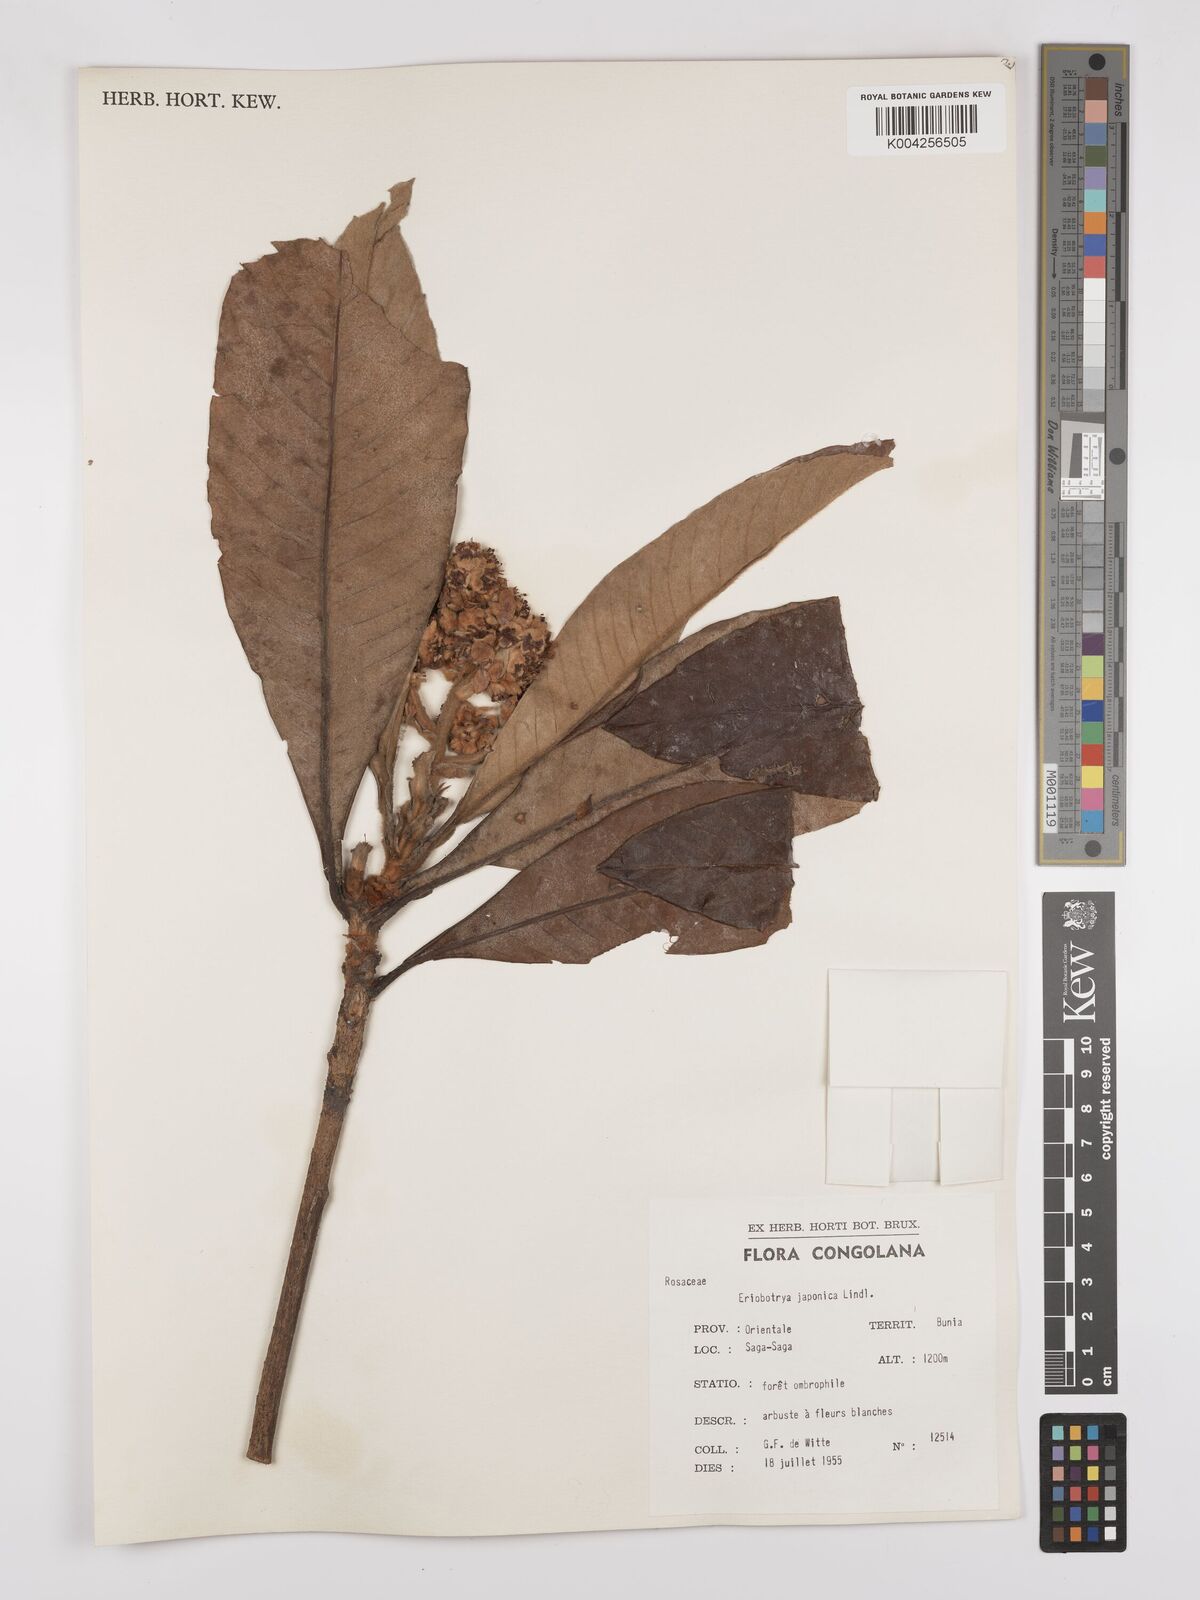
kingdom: Plantae
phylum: Tracheophyta
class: Magnoliopsida
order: Rosales
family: Rosaceae
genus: Rhaphiolepis
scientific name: Rhaphiolepis bibas
